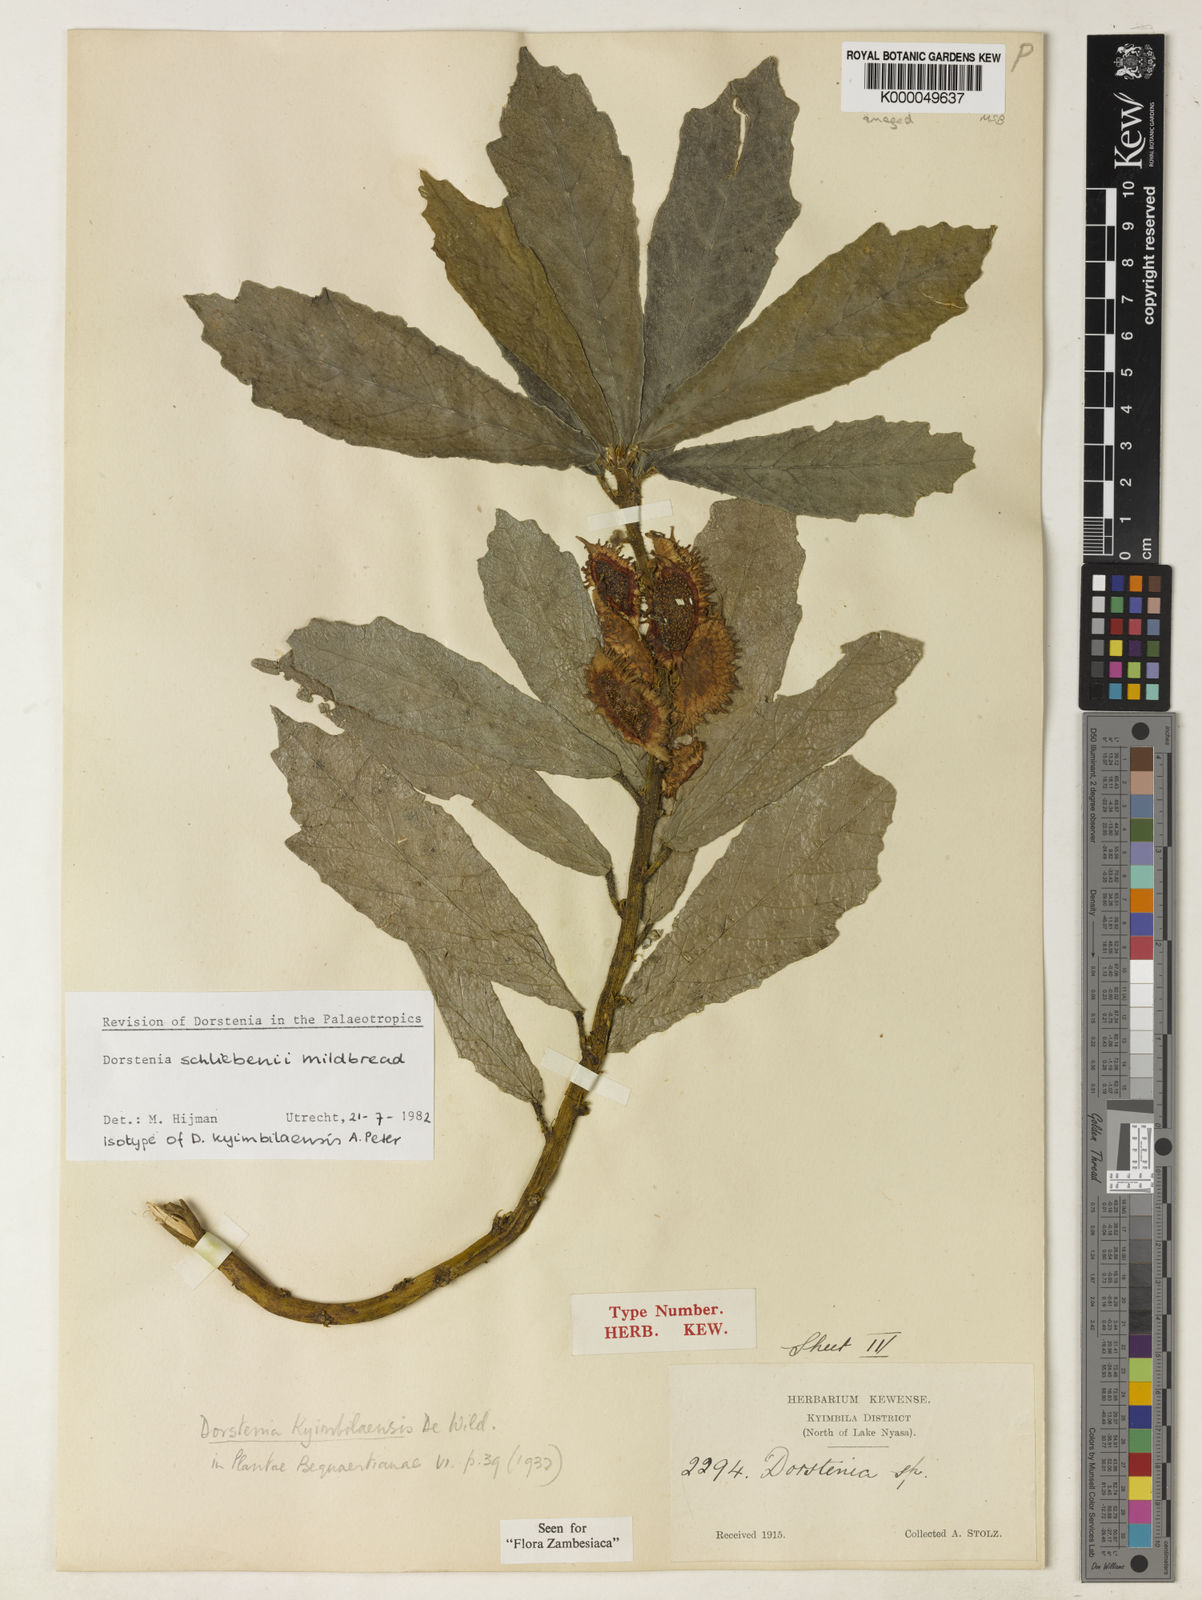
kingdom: Plantae
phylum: Tracheophyta
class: Magnoliopsida
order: Rosales
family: Moraceae
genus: Dorstenia
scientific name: Dorstenia schliebenii
